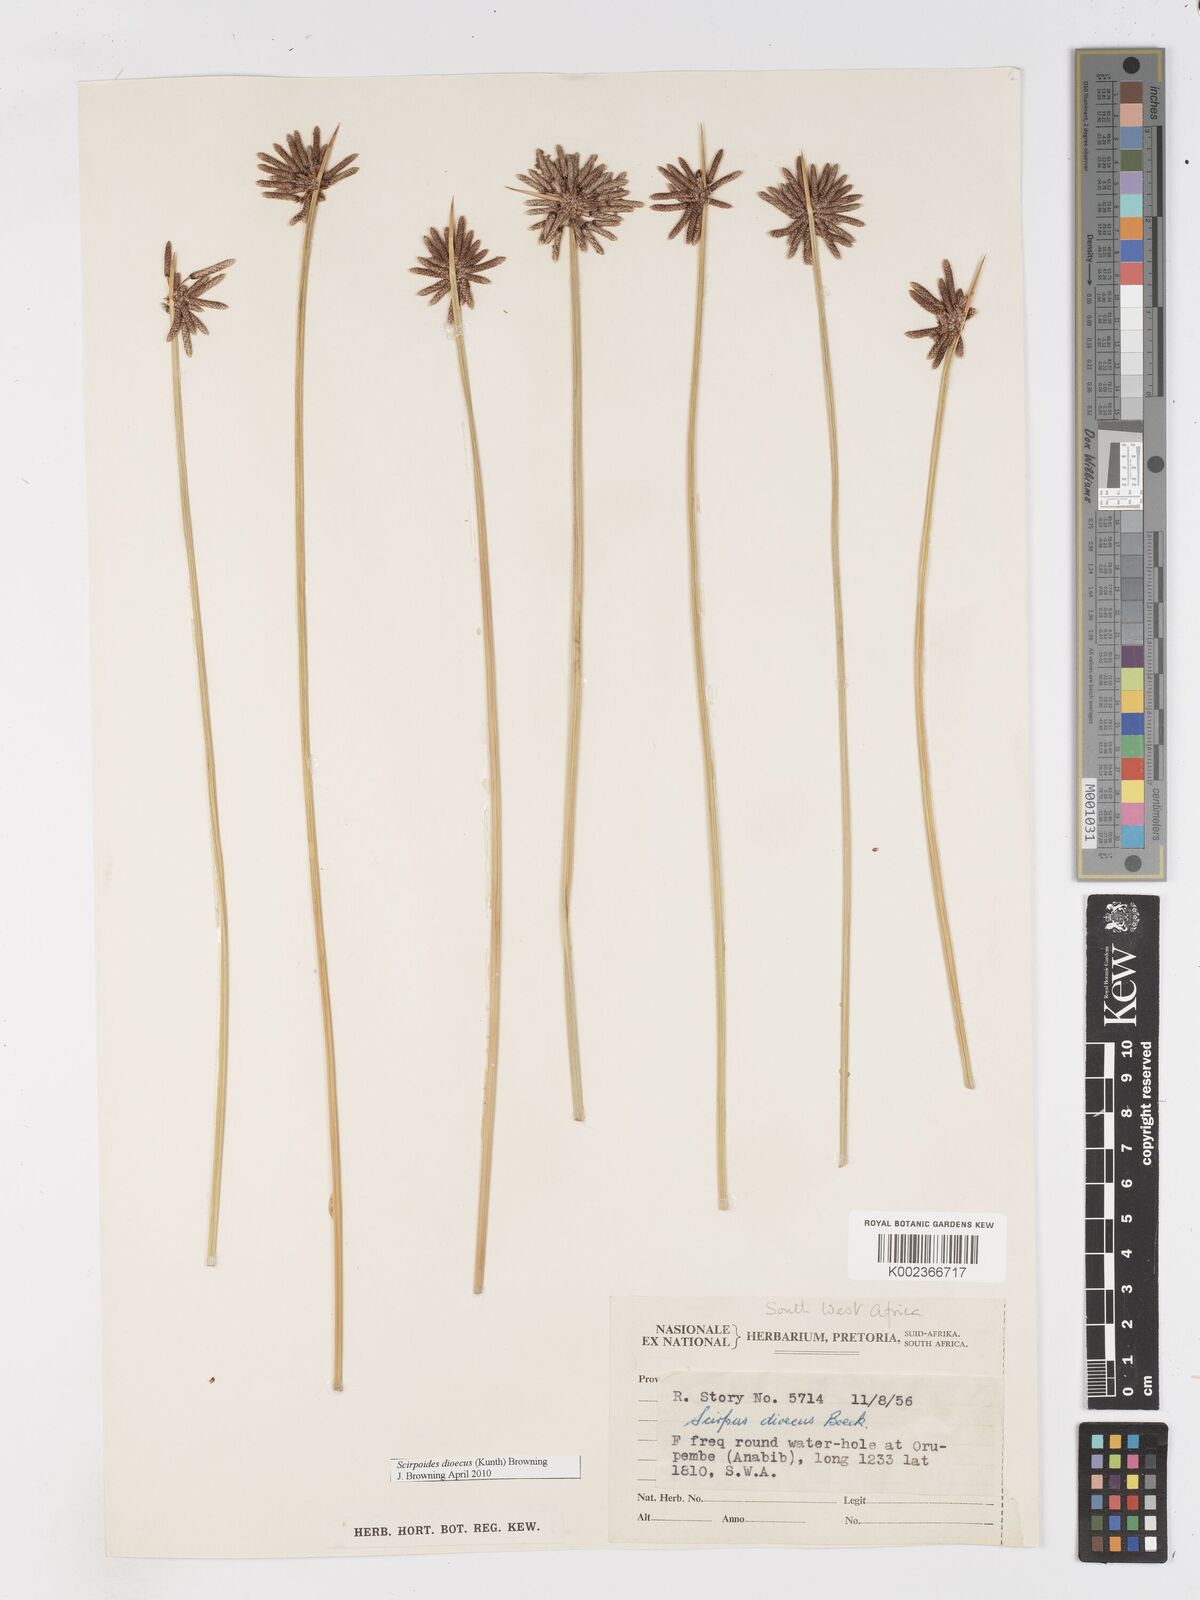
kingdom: Plantae
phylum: Tracheophyta
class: Liliopsida
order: Poales
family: Cyperaceae
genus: Scirpoides
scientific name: Scirpoides
